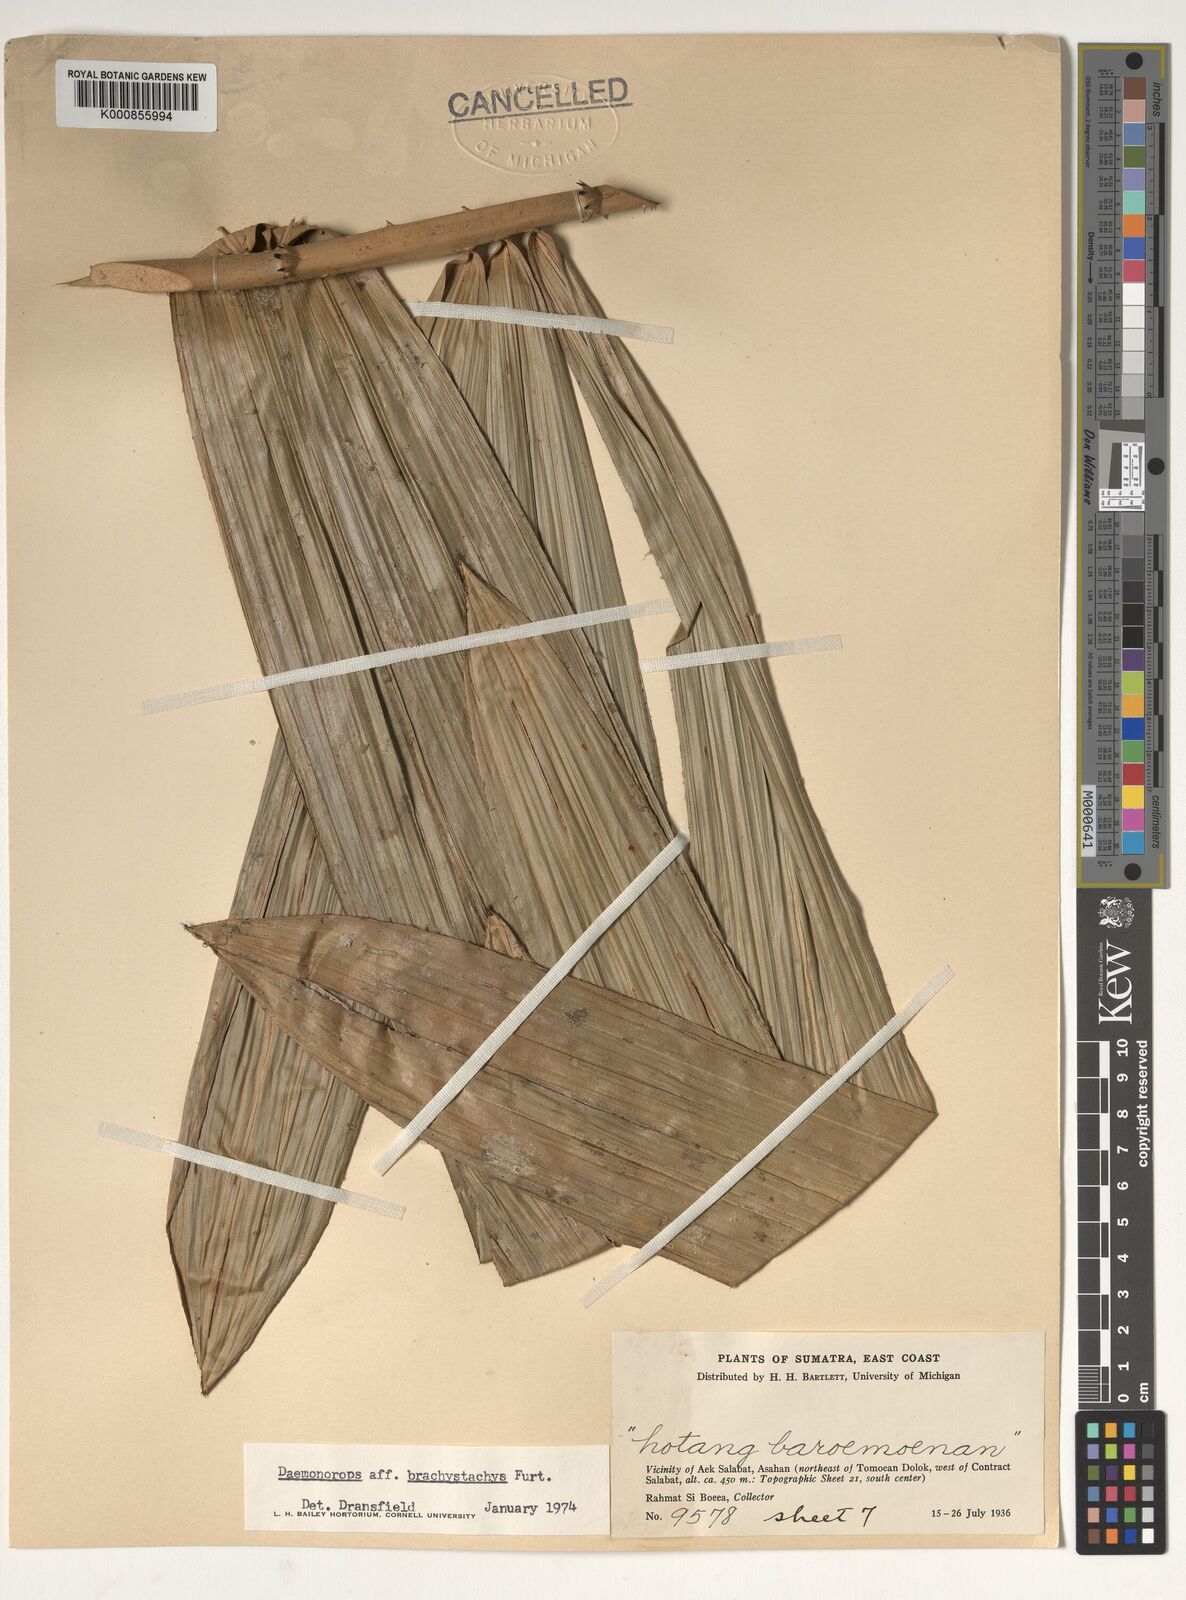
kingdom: Plantae
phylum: Tracheophyta
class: Liliopsida
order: Arecales
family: Arecaceae
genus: Calamus
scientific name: Calamus
